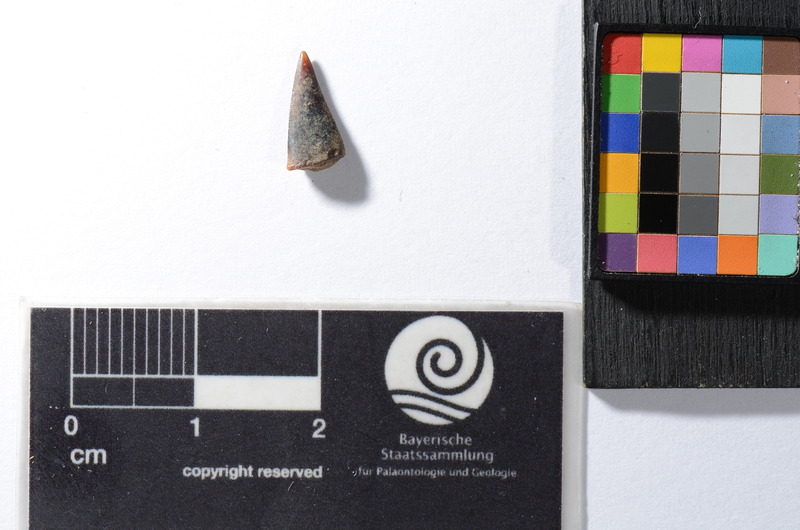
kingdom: Animalia
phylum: Chordata
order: Perciformes
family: Sphyraenidae
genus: Sphyraena
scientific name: Sphyraena Saurocephalus fajumensis
